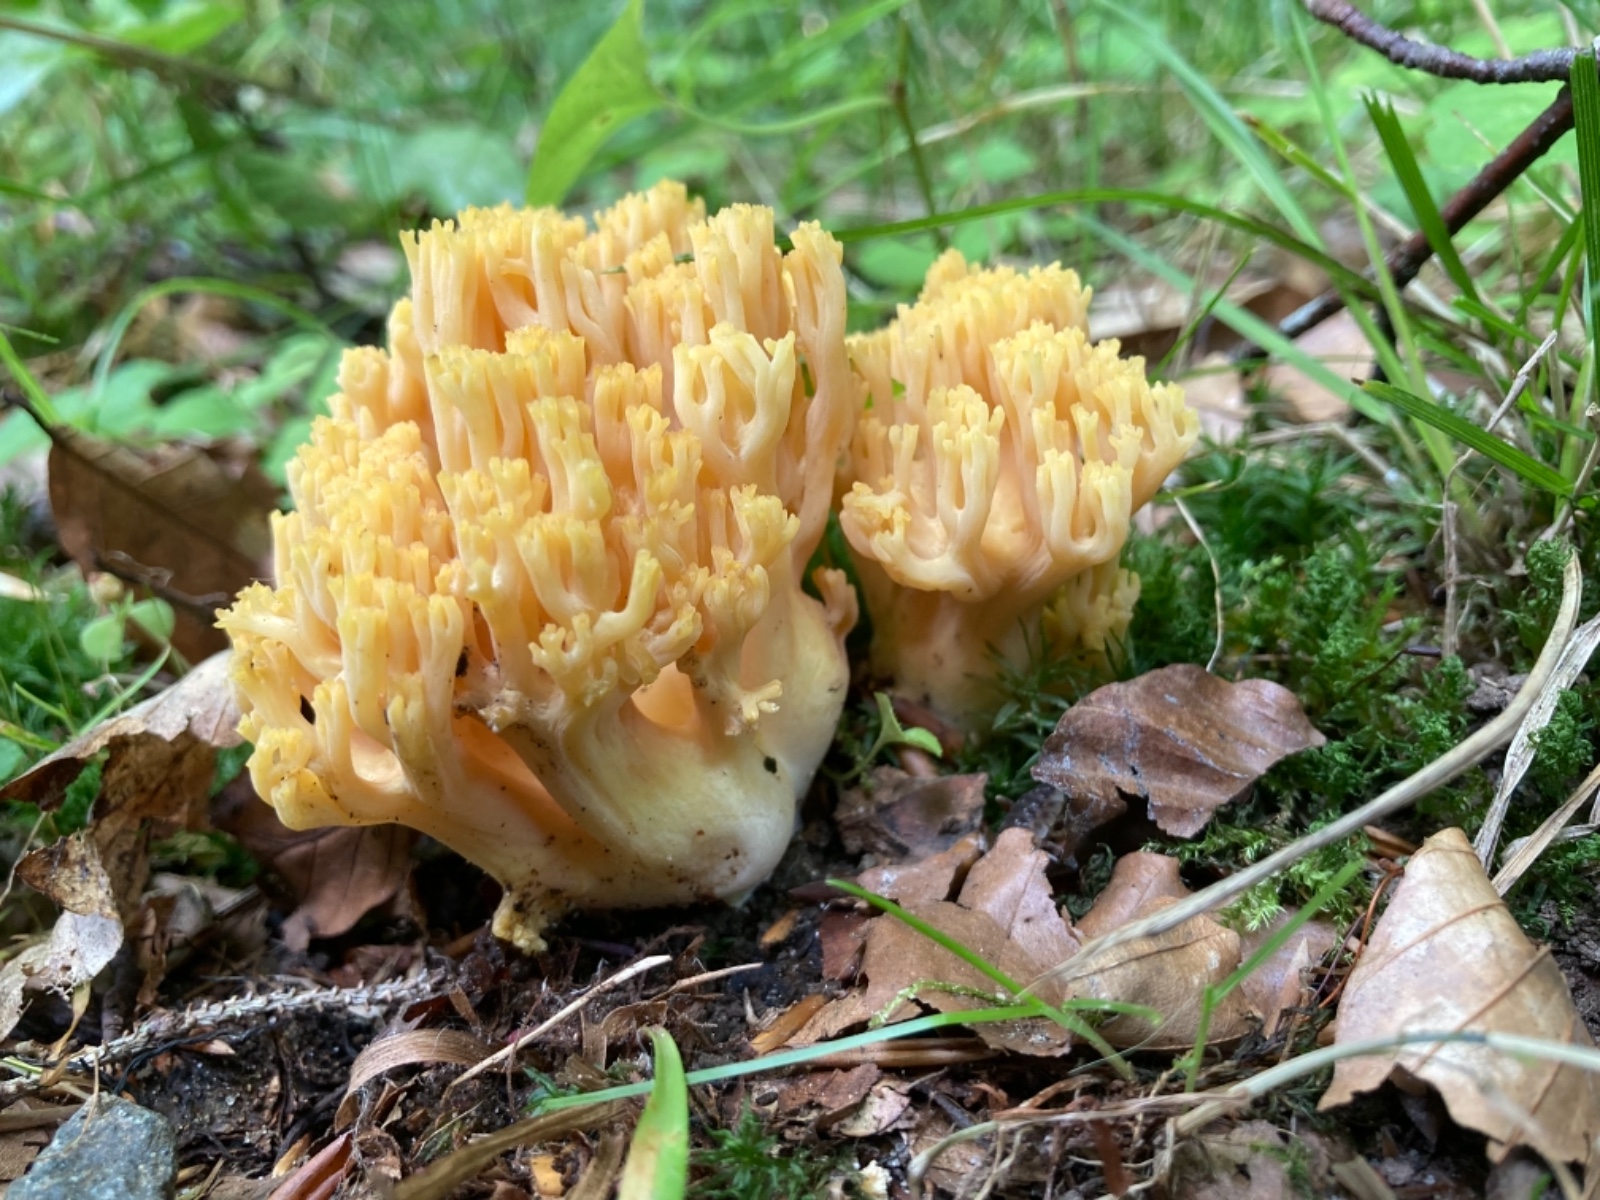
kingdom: Fungi
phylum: Basidiomycota
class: Agaricomycetes
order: Gomphales
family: Gomphaceae
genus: Ramaria
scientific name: Ramaria krieglsteineri
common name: smalsporet koralsvamp
